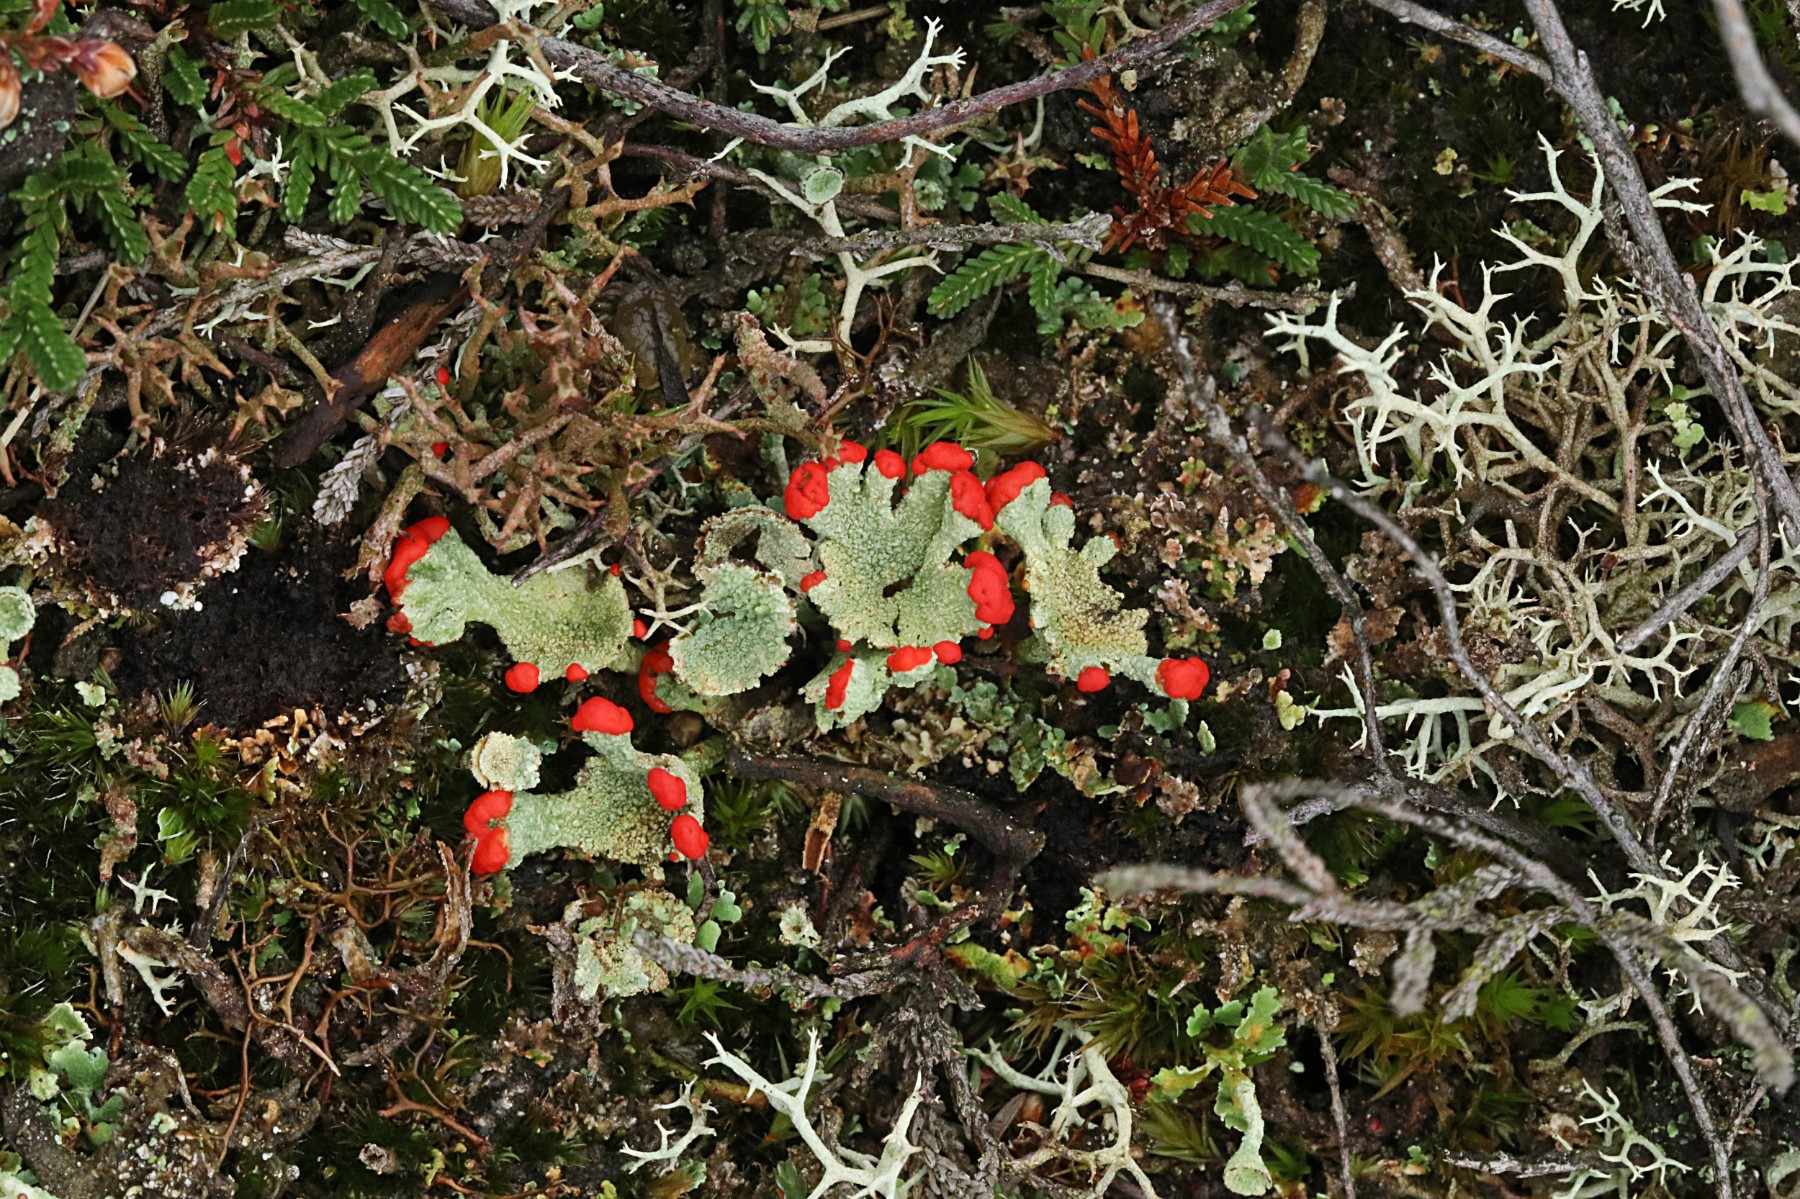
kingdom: Fungi
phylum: Ascomycota
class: Lecanoromycetes
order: Lecanorales
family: Cladoniaceae
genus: Cladonia
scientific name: Cladonia diversa
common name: rød bægerlav
